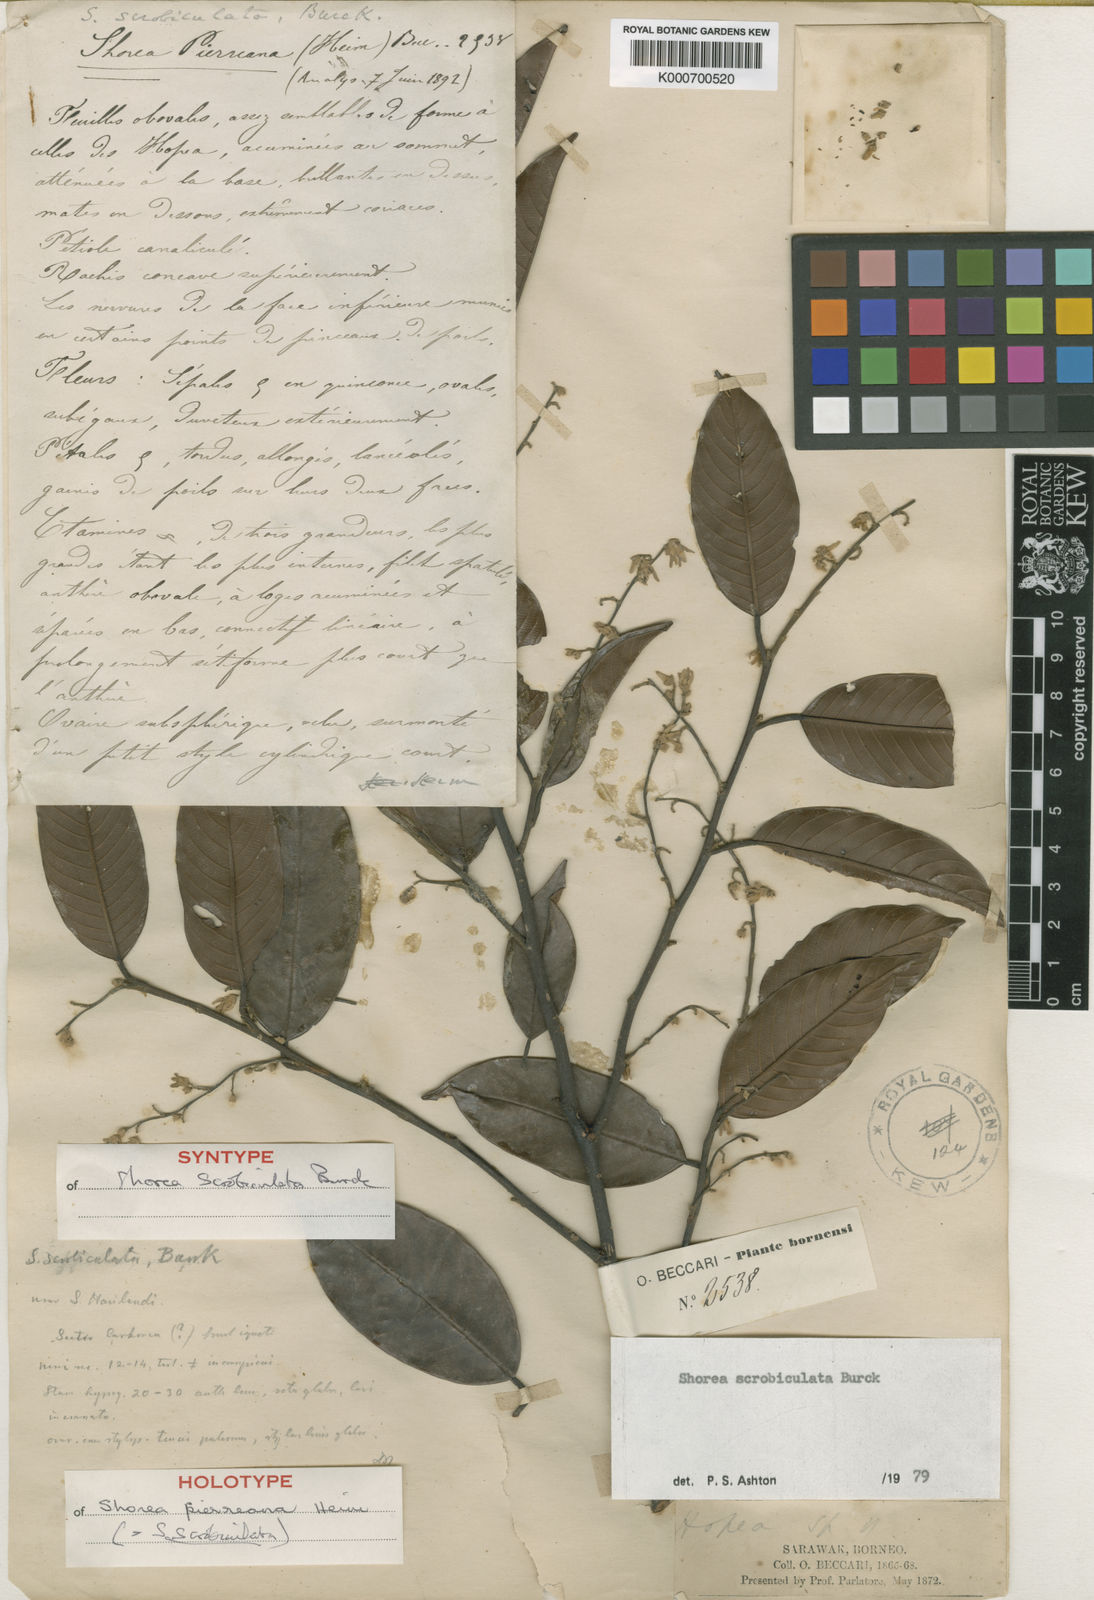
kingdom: Plantae
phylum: Tracheophyta
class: Magnoliopsida
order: Malvales
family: Dipterocarpaceae
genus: Shorea
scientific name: Shorea scrobiculata
